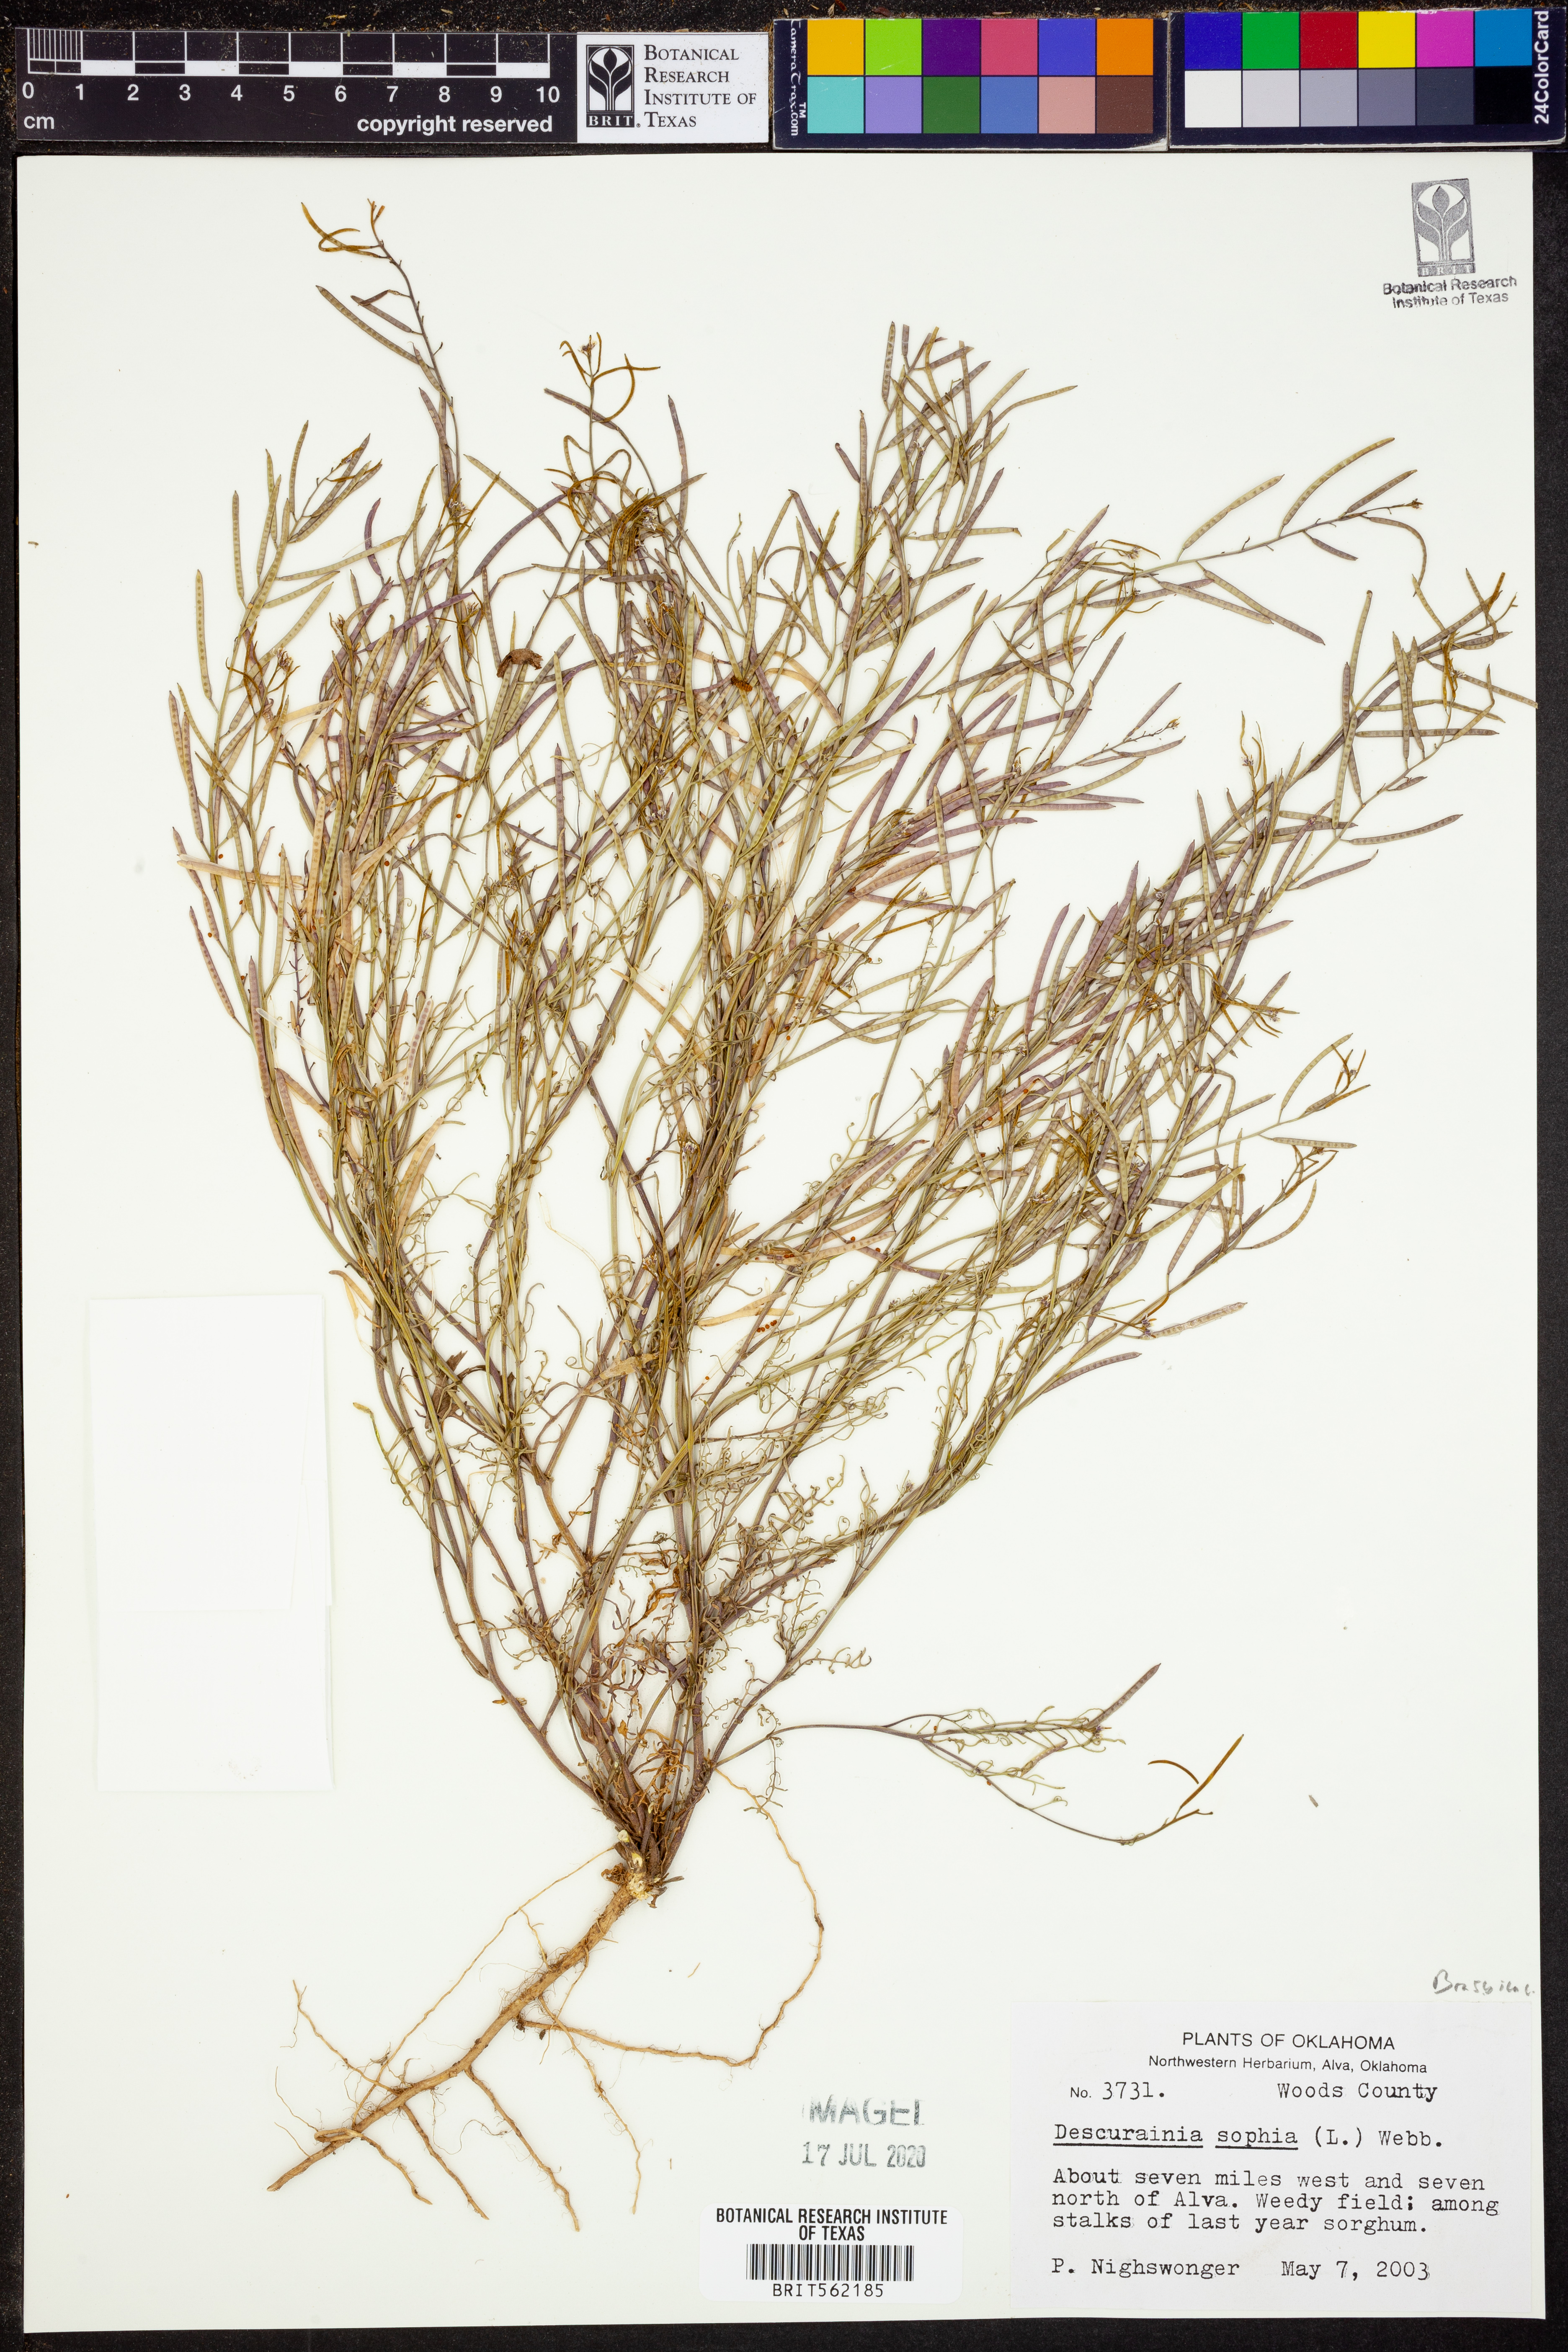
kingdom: Plantae
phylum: Tracheophyta
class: Magnoliopsida
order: Brassicales
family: Brassicaceae
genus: Descurainia
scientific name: Descurainia sophia
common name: Flixweed
